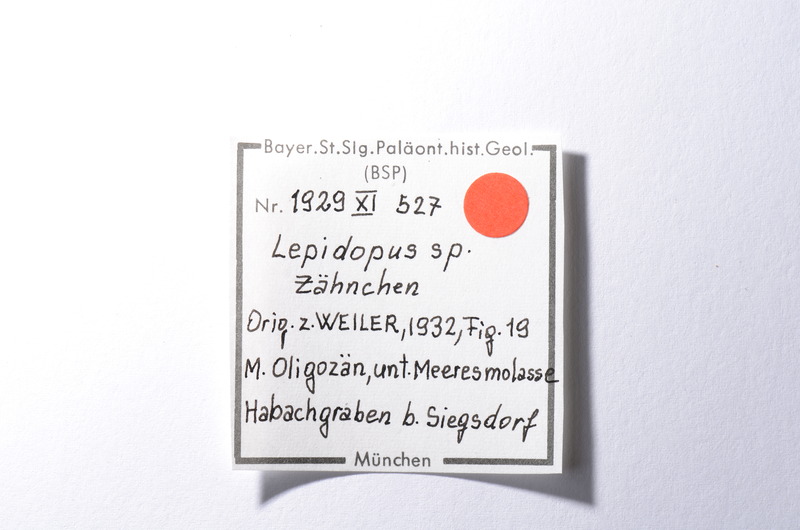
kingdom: Animalia
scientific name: Animalia
